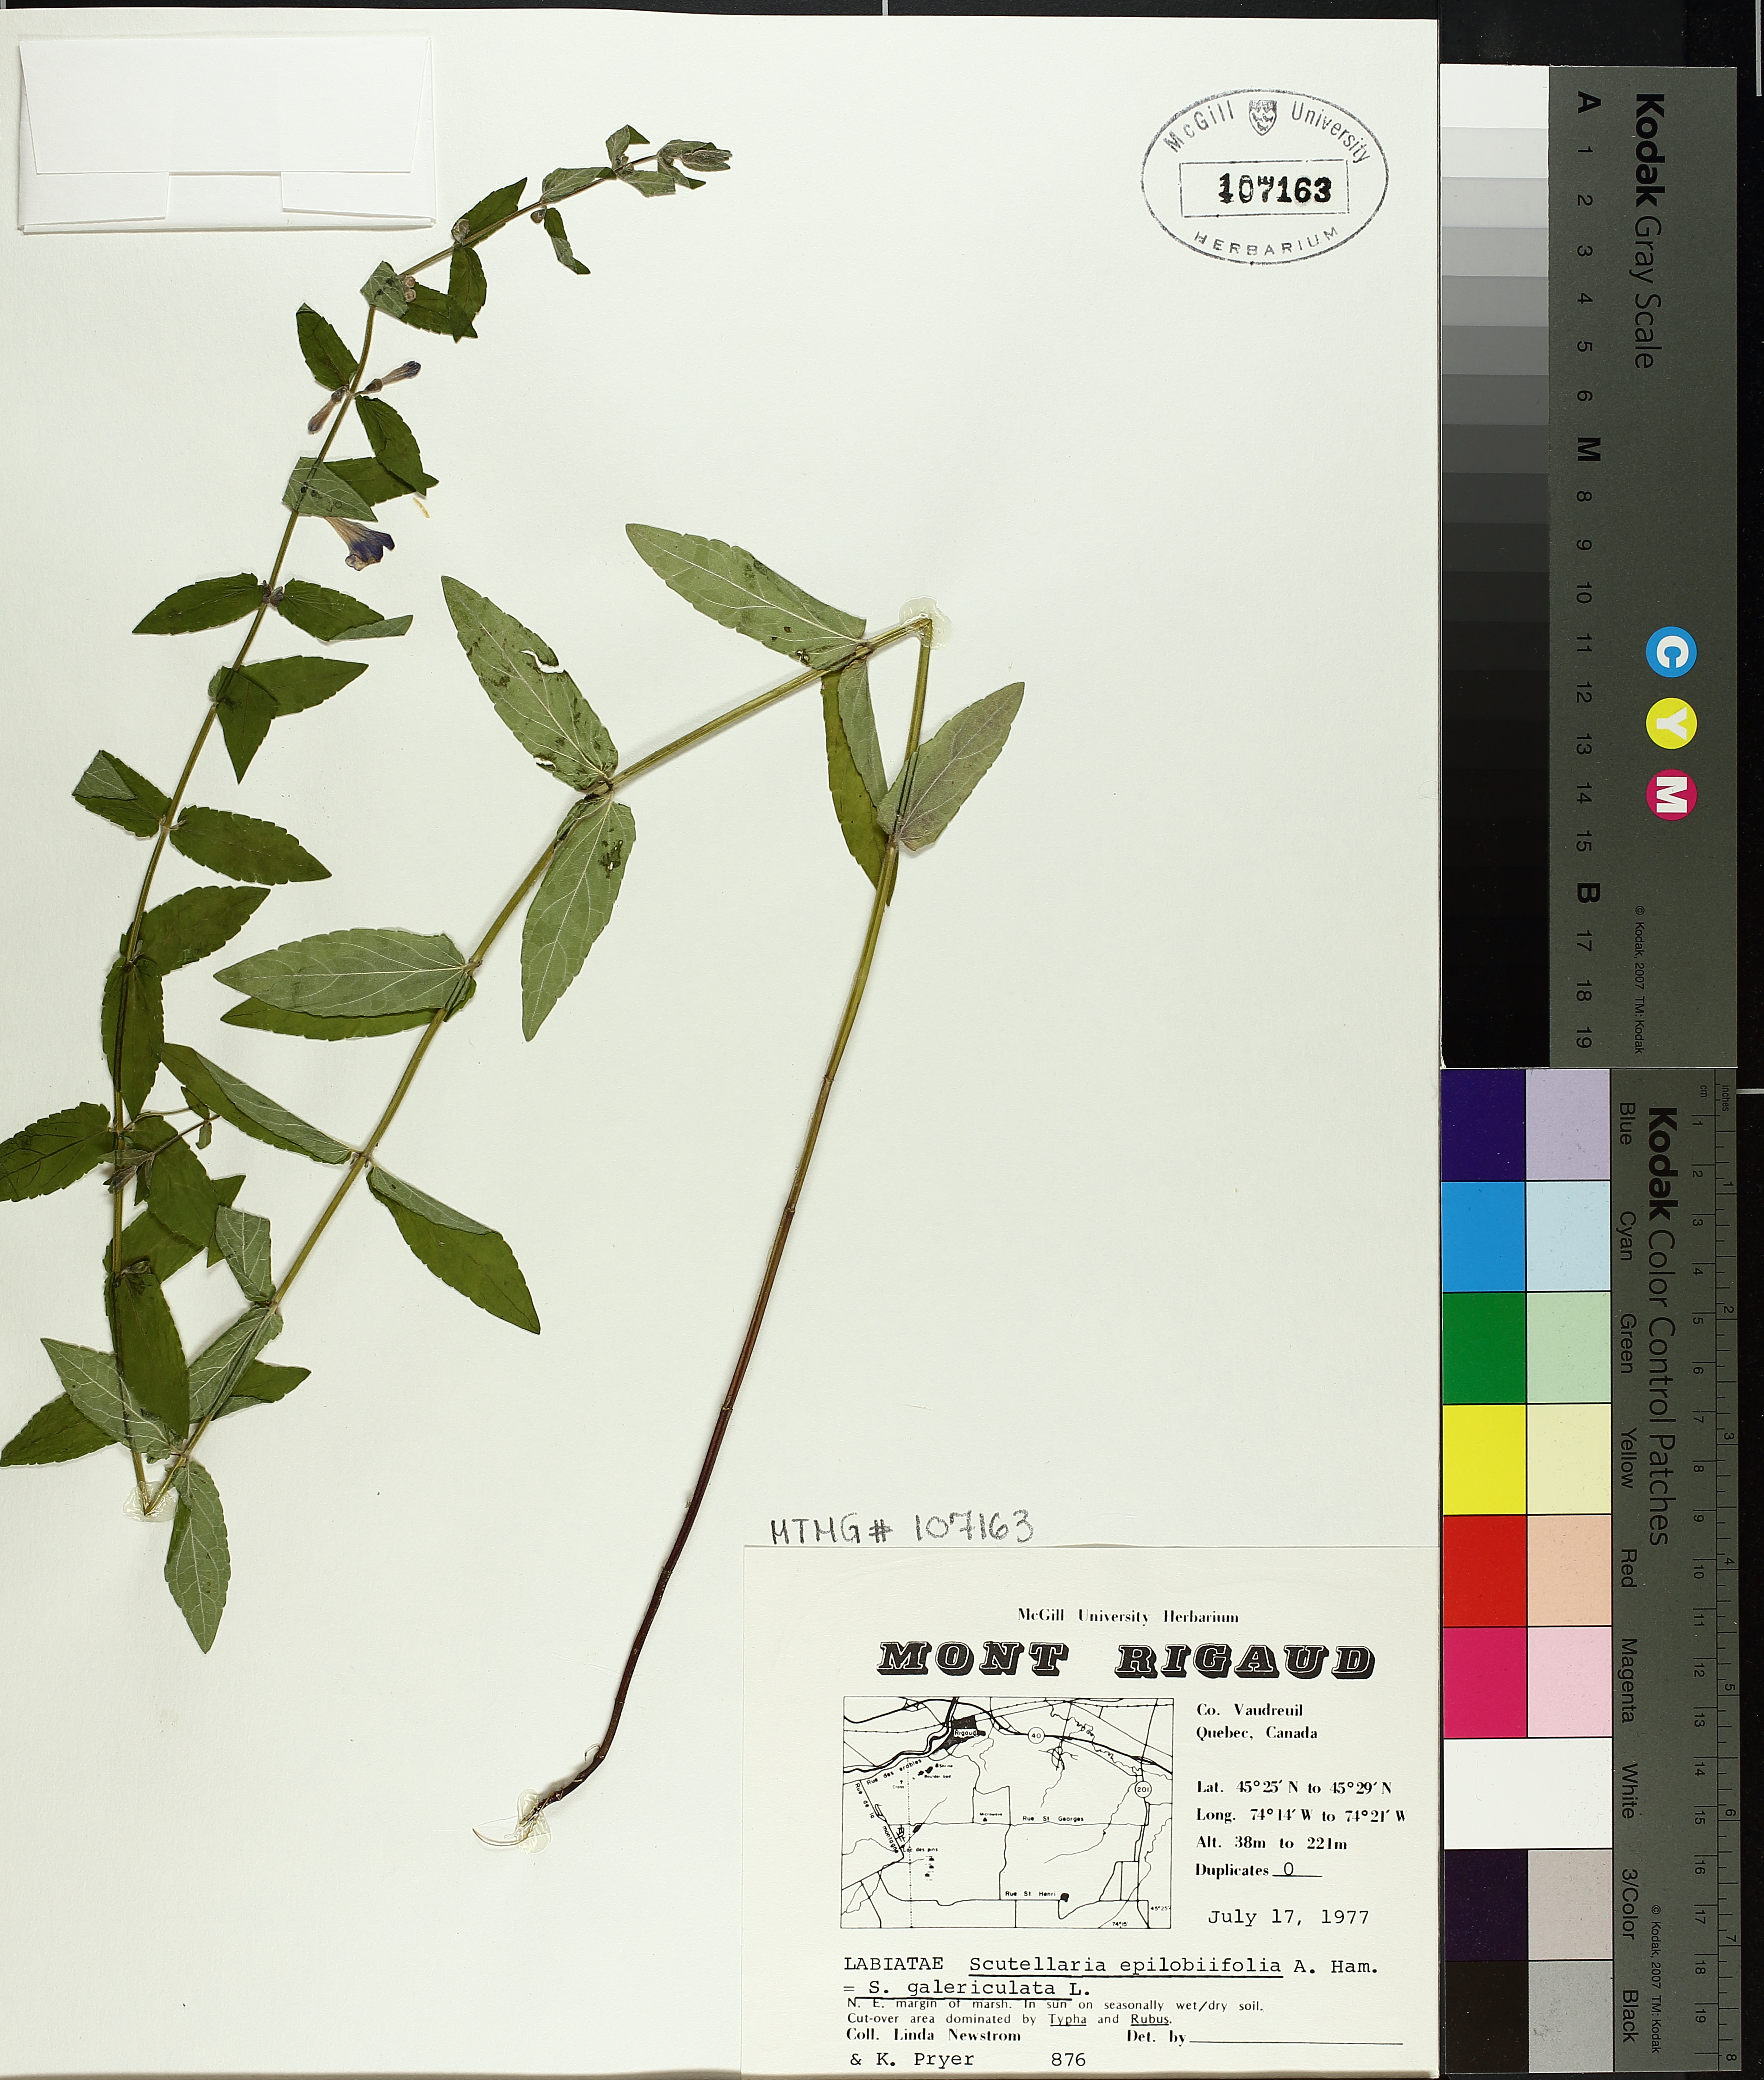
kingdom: Plantae
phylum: Tracheophyta
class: Magnoliopsida
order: Lamiales
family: Lamiaceae
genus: Scutellaria
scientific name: Scutellaria galericulata
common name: Skullcap
